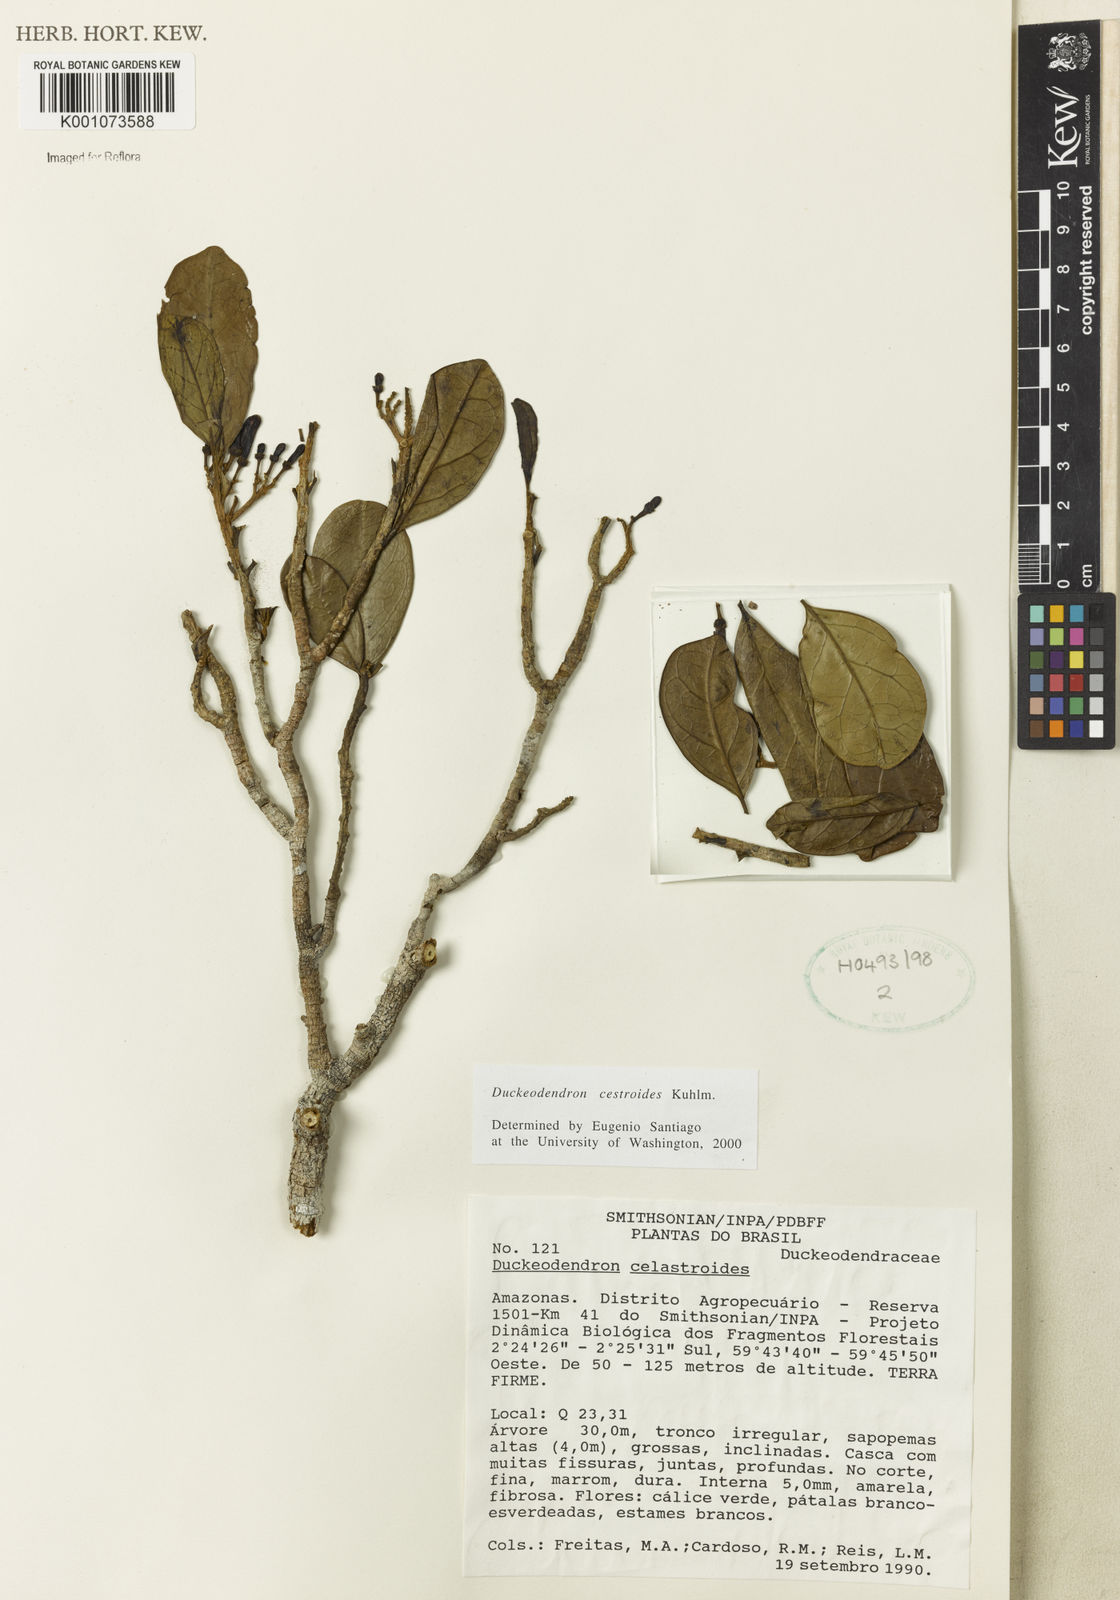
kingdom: Plantae
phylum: Tracheophyta
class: Magnoliopsida
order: Solanales
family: Solanaceae
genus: Duckeodendron
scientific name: Duckeodendron cestroides
